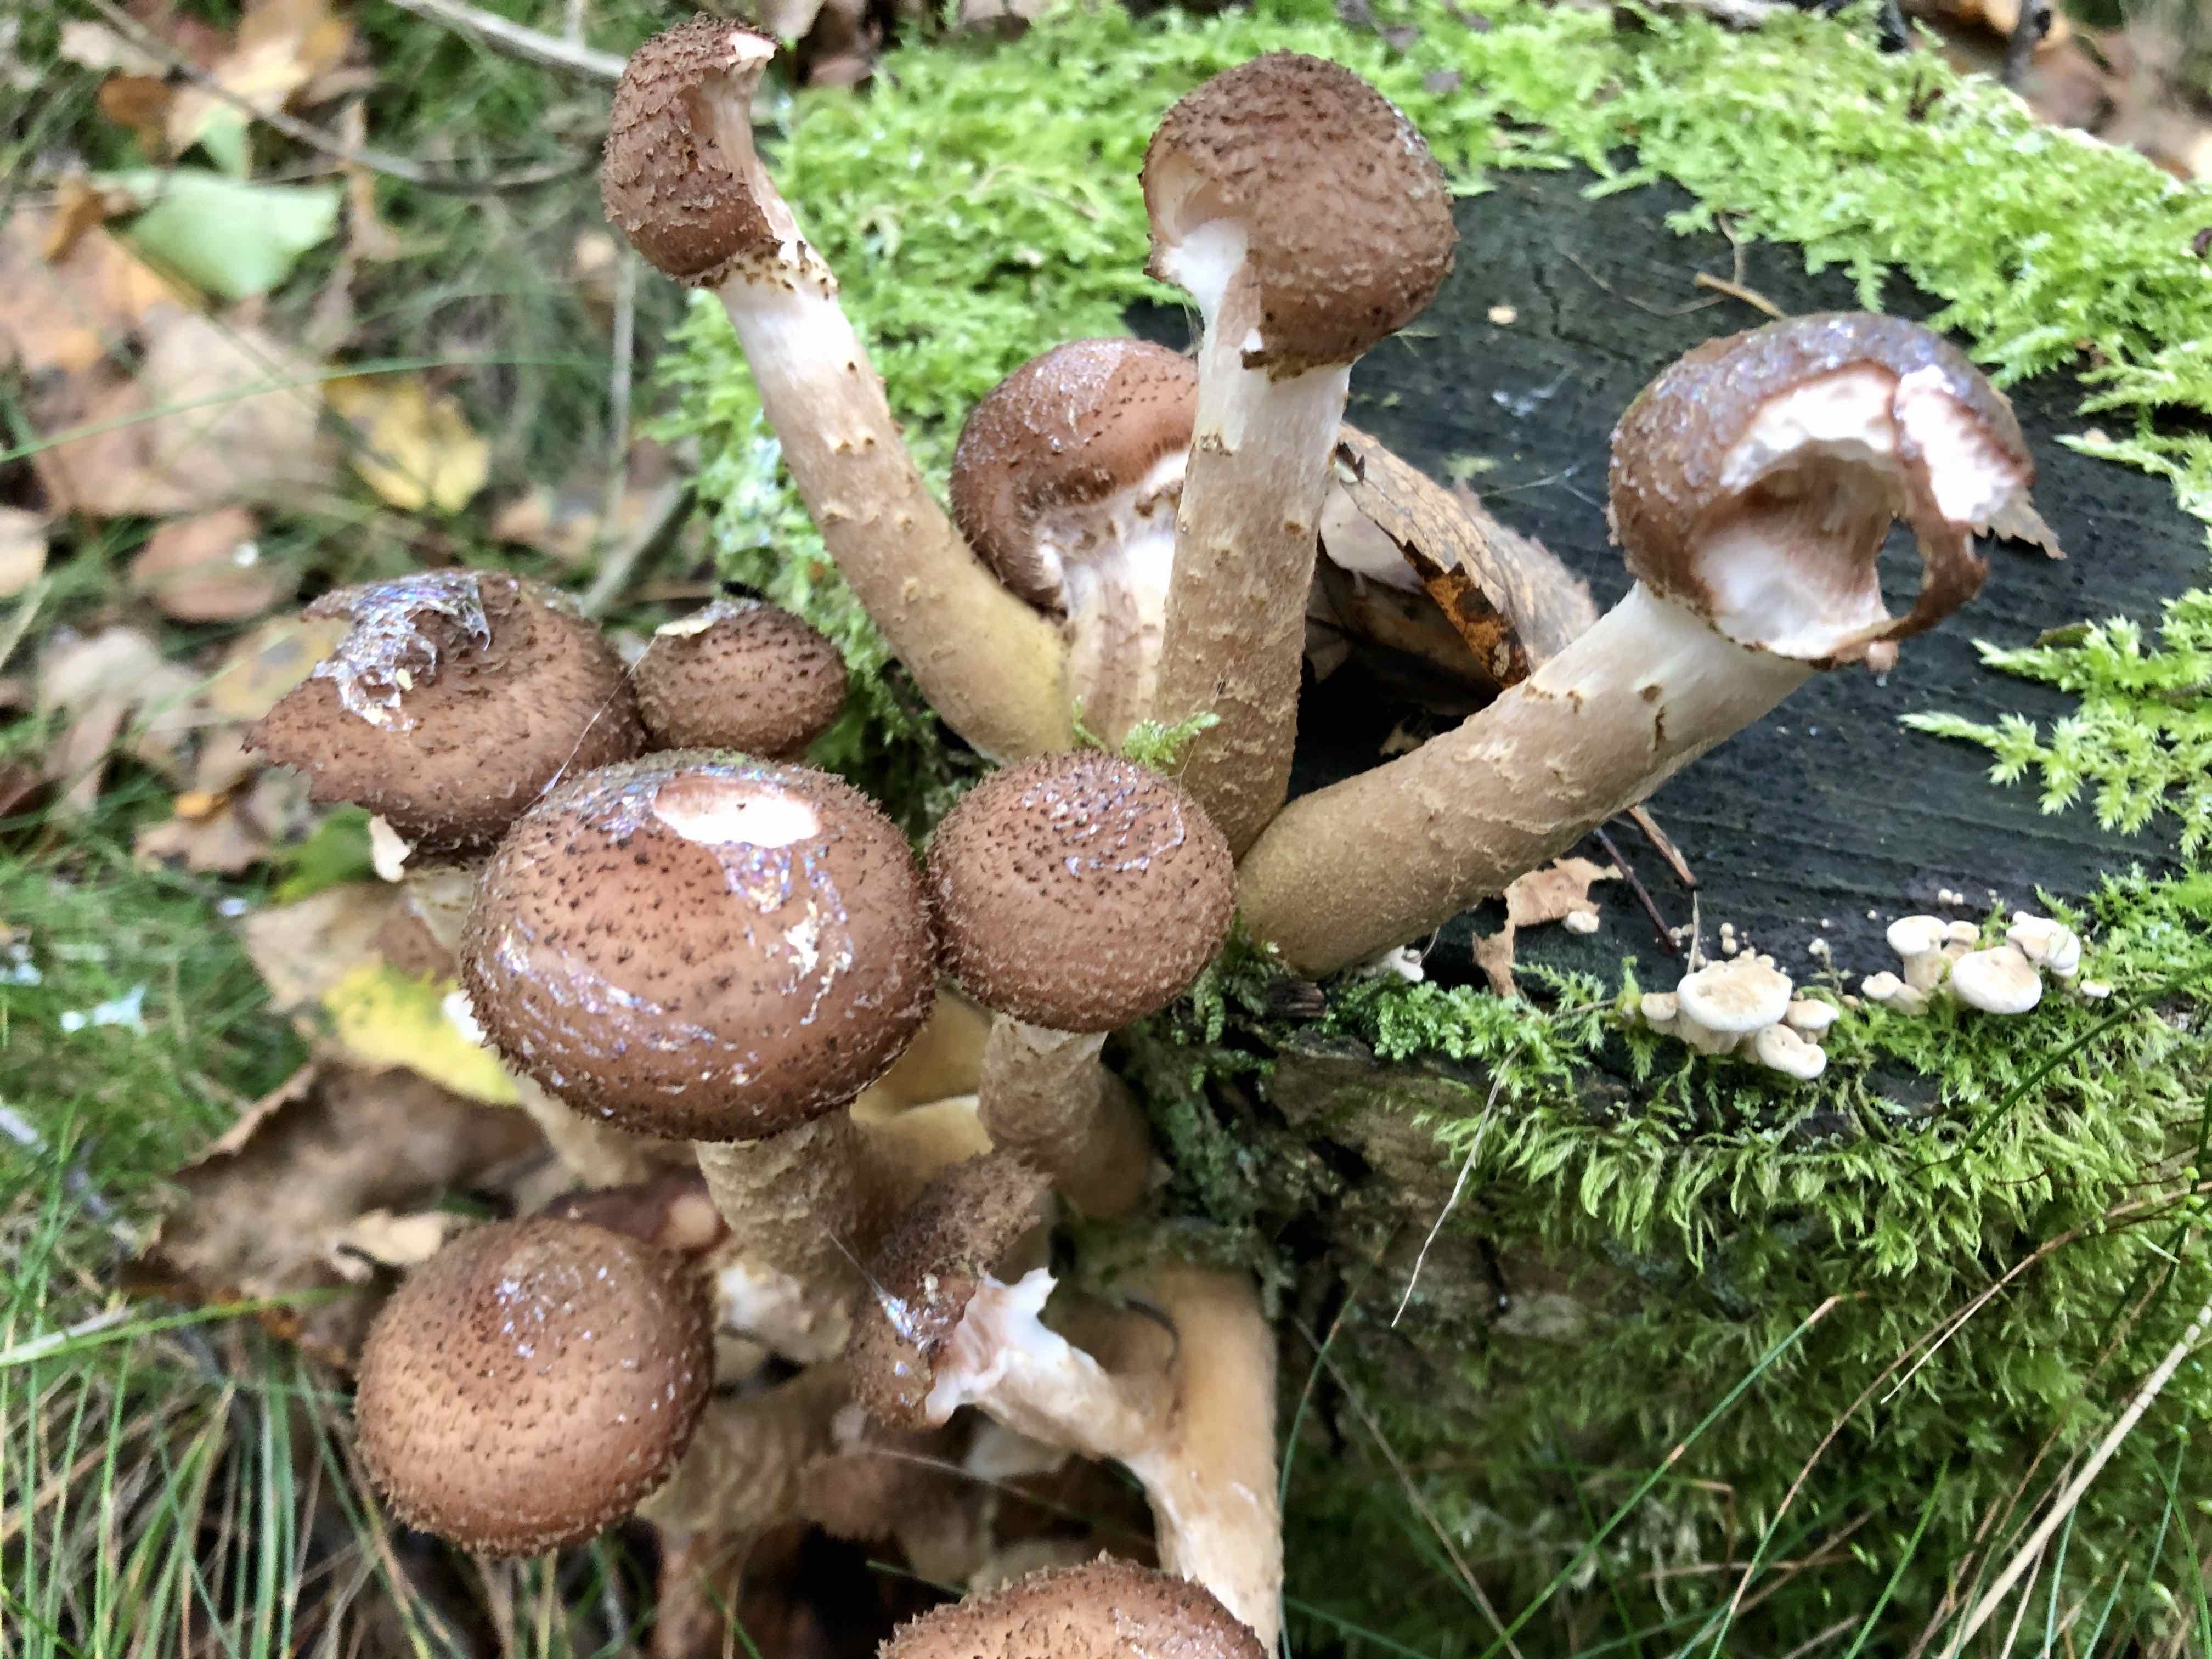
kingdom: Fungi
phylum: Basidiomycota
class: Agaricomycetes
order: Agaricales
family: Physalacriaceae
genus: Armillaria
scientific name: Armillaria
